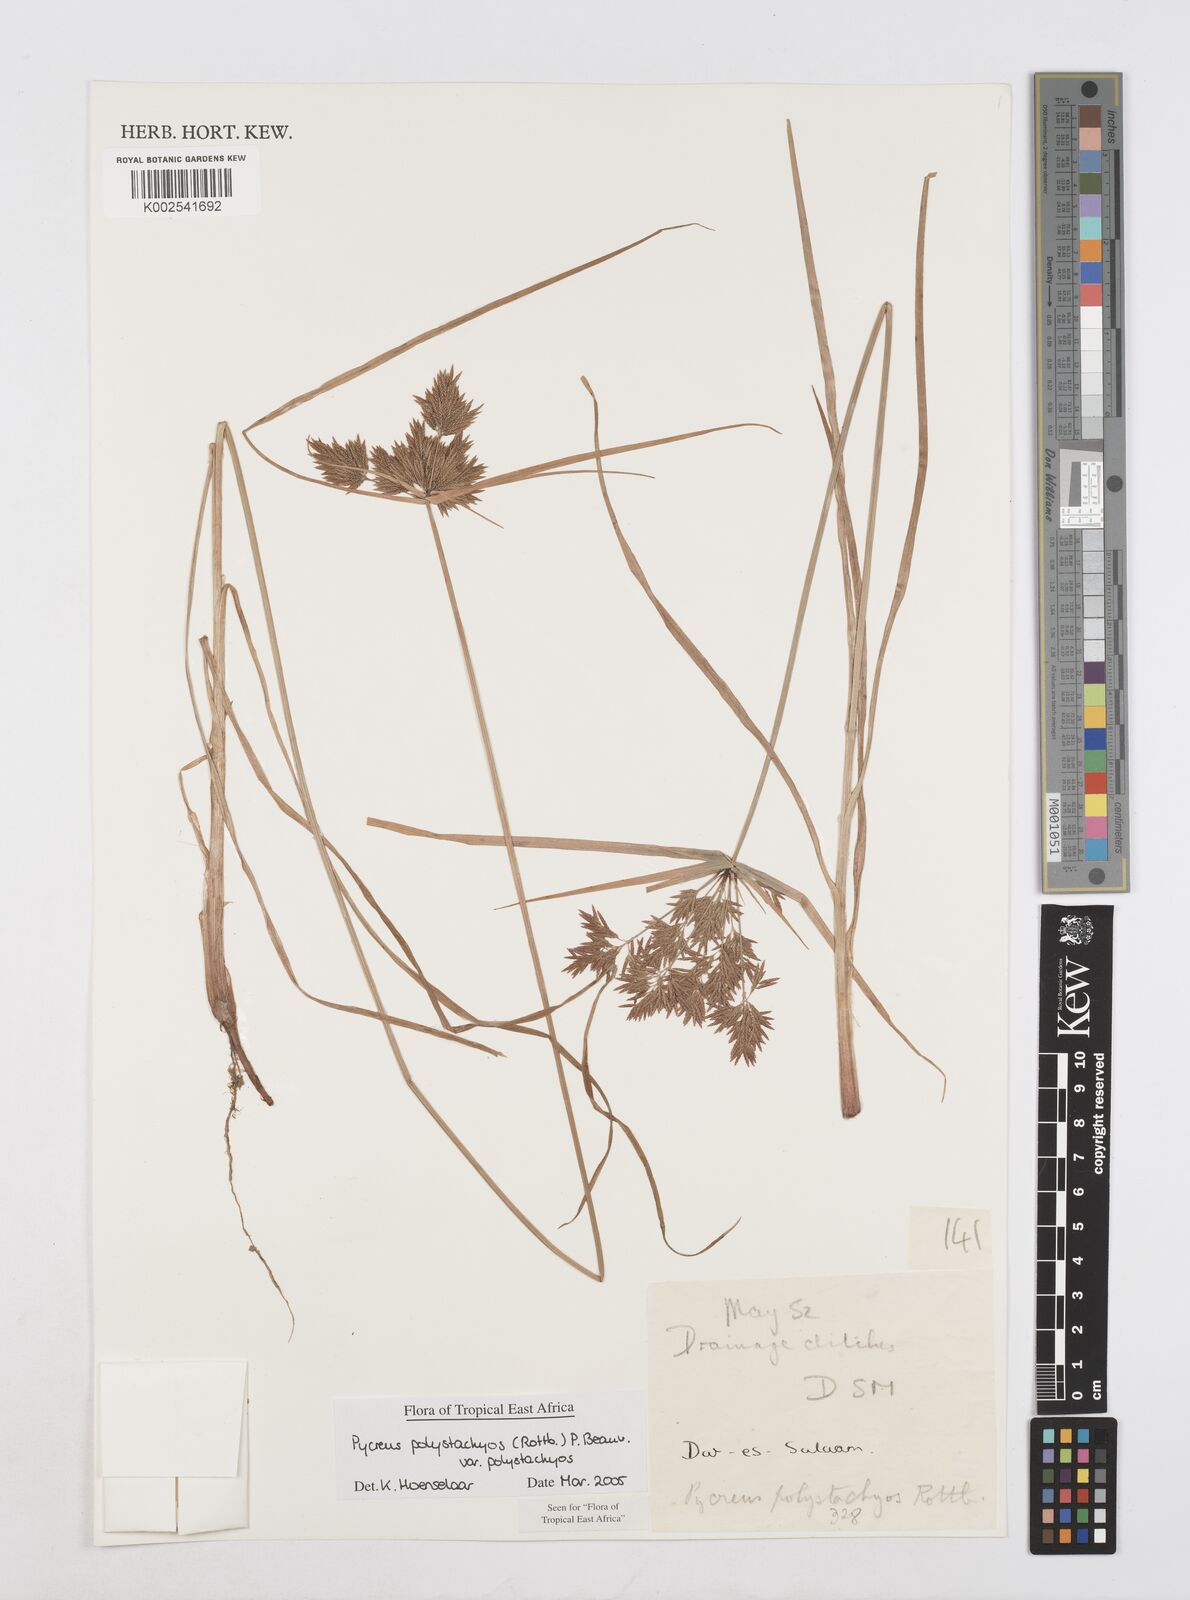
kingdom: Plantae
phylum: Tracheophyta
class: Liliopsida
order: Poales
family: Cyperaceae
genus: Cyperus
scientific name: Cyperus polystachyos
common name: Bunchy flat sedge
